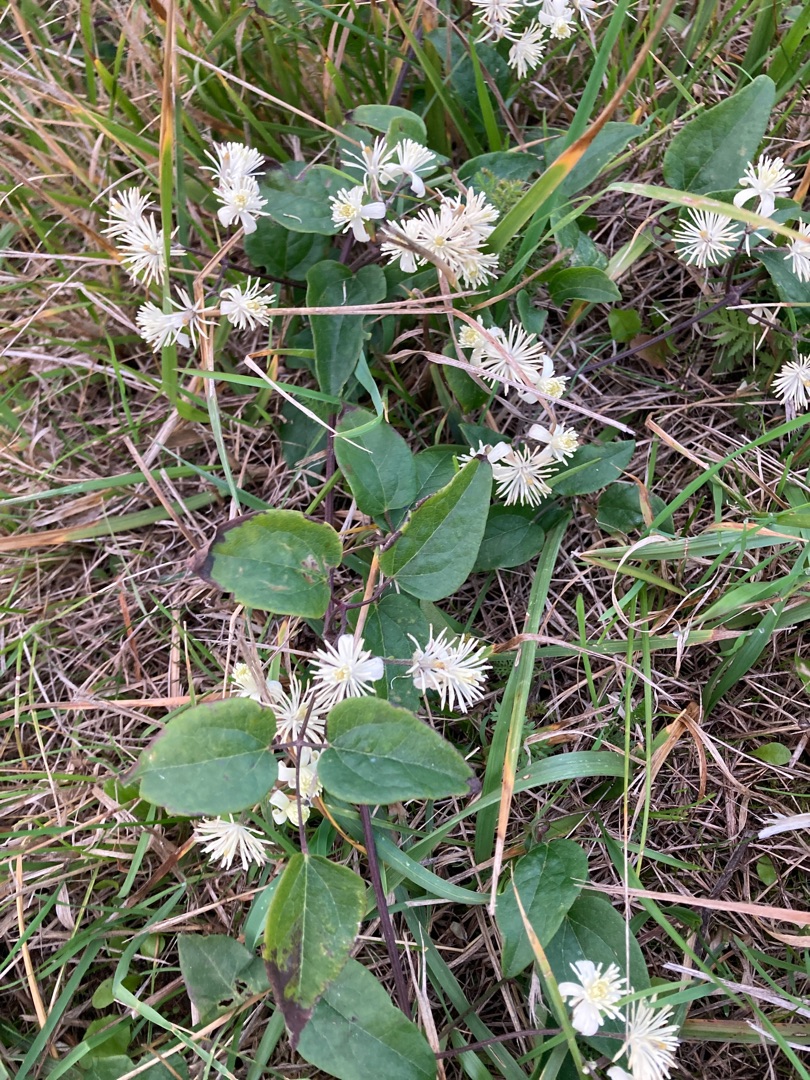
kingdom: Plantae
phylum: Tracheophyta
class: Magnoliopsida
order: Ranunculales
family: Ranunculaceae
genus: Clematis
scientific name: Clematis vitalba
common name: Skovranke
